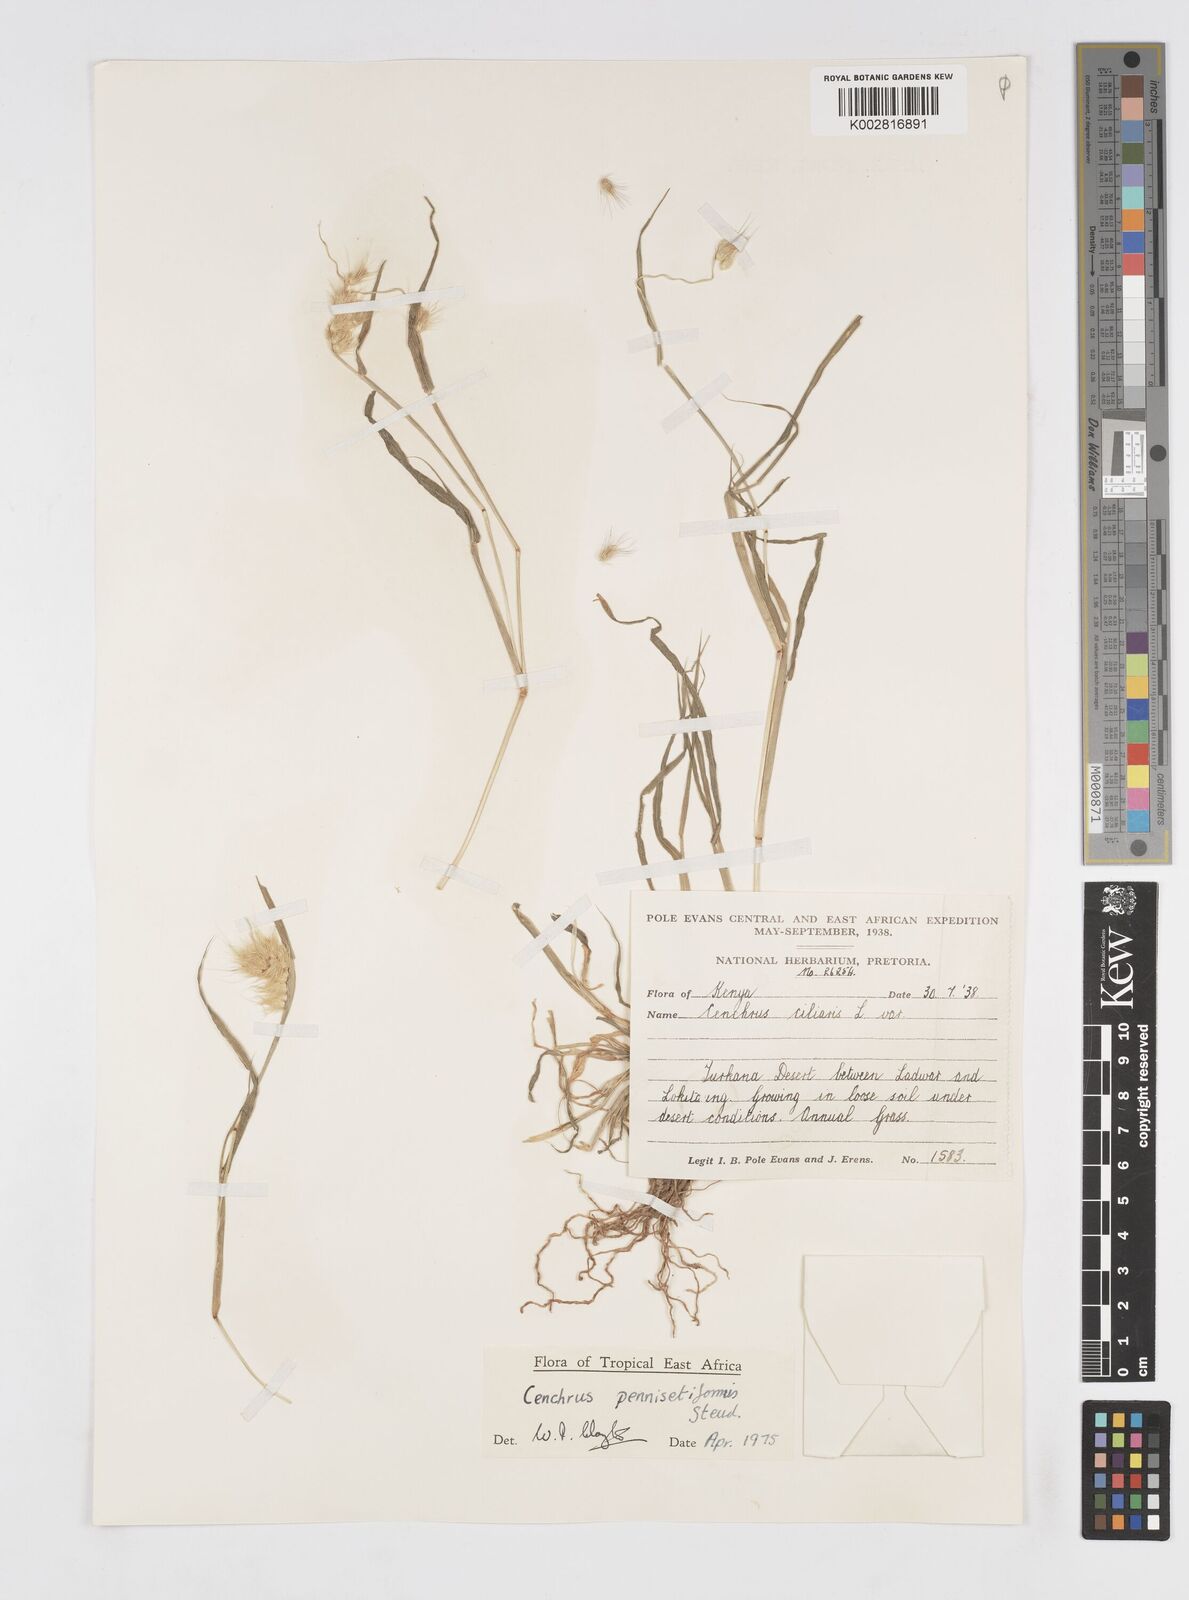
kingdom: Plantae
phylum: Tracheophyta
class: Liliopsida
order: Poales
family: Poaceae
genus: Cenchrus
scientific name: Cenchrus pennisetiformis
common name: Cloncurry
